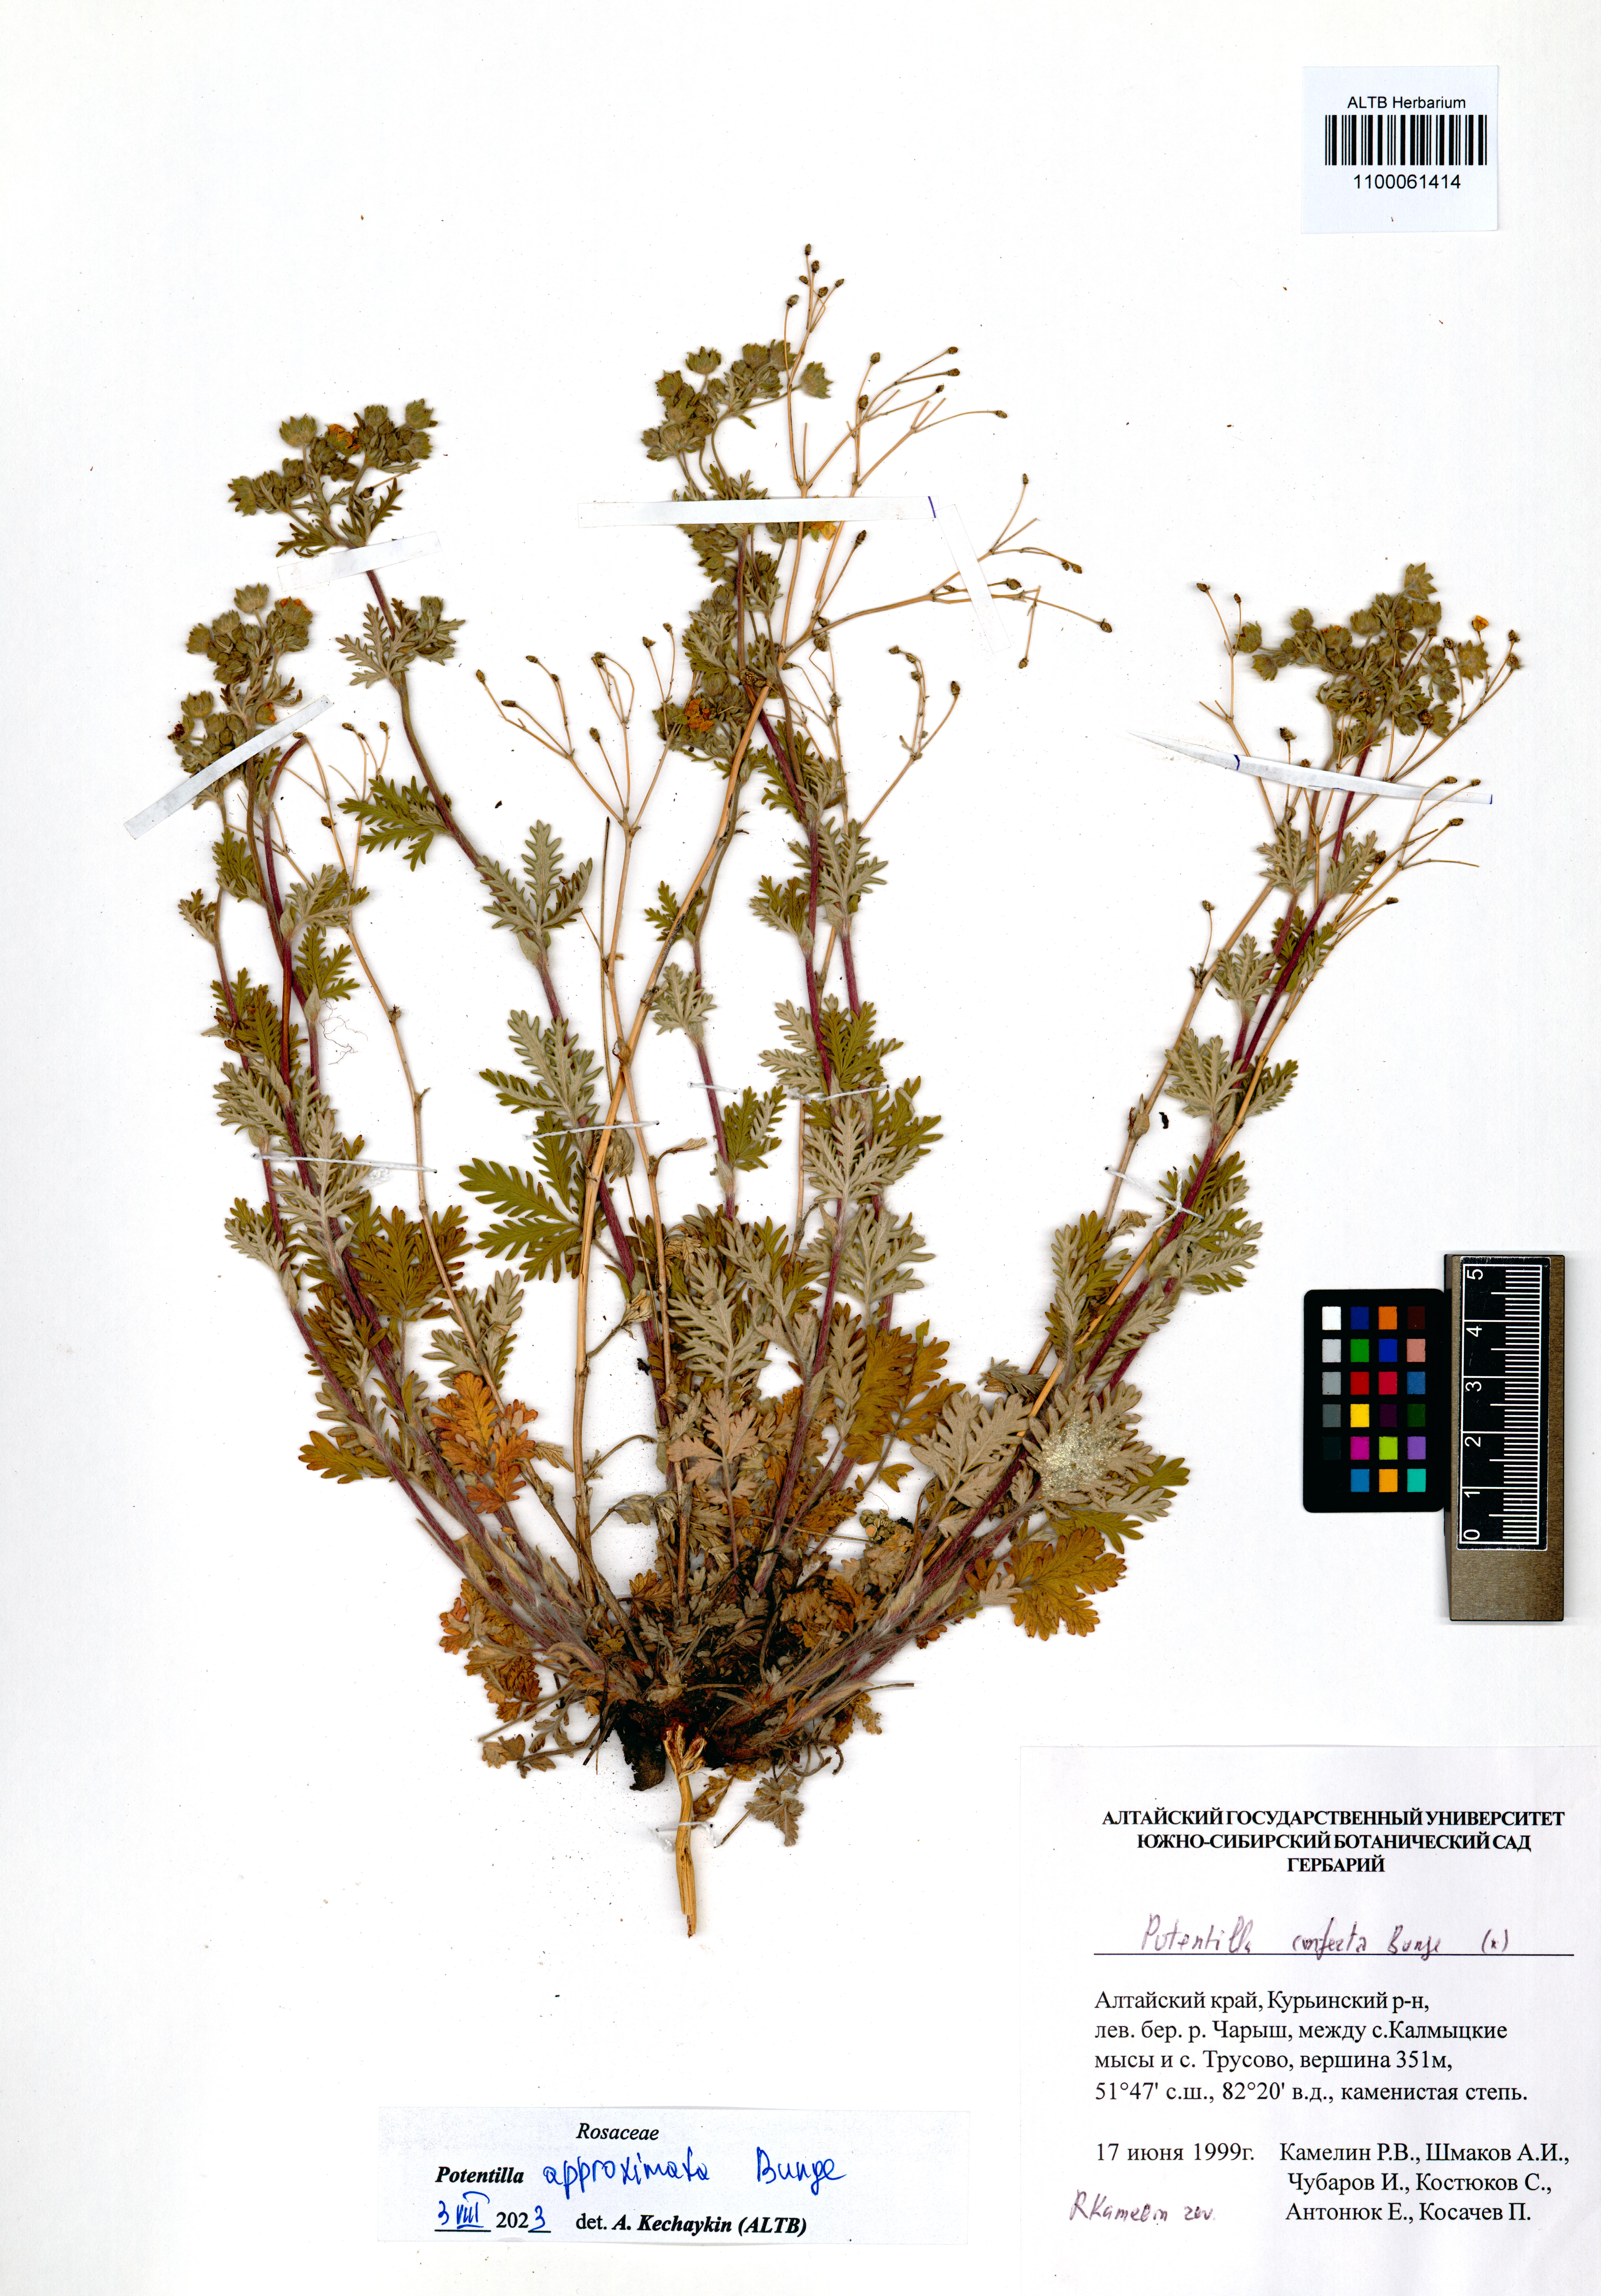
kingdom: Plantae
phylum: Tracheophyta
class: Magnoliopsida
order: Rosales
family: Rosaceae
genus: Potentilla
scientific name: Potentilla conferta
